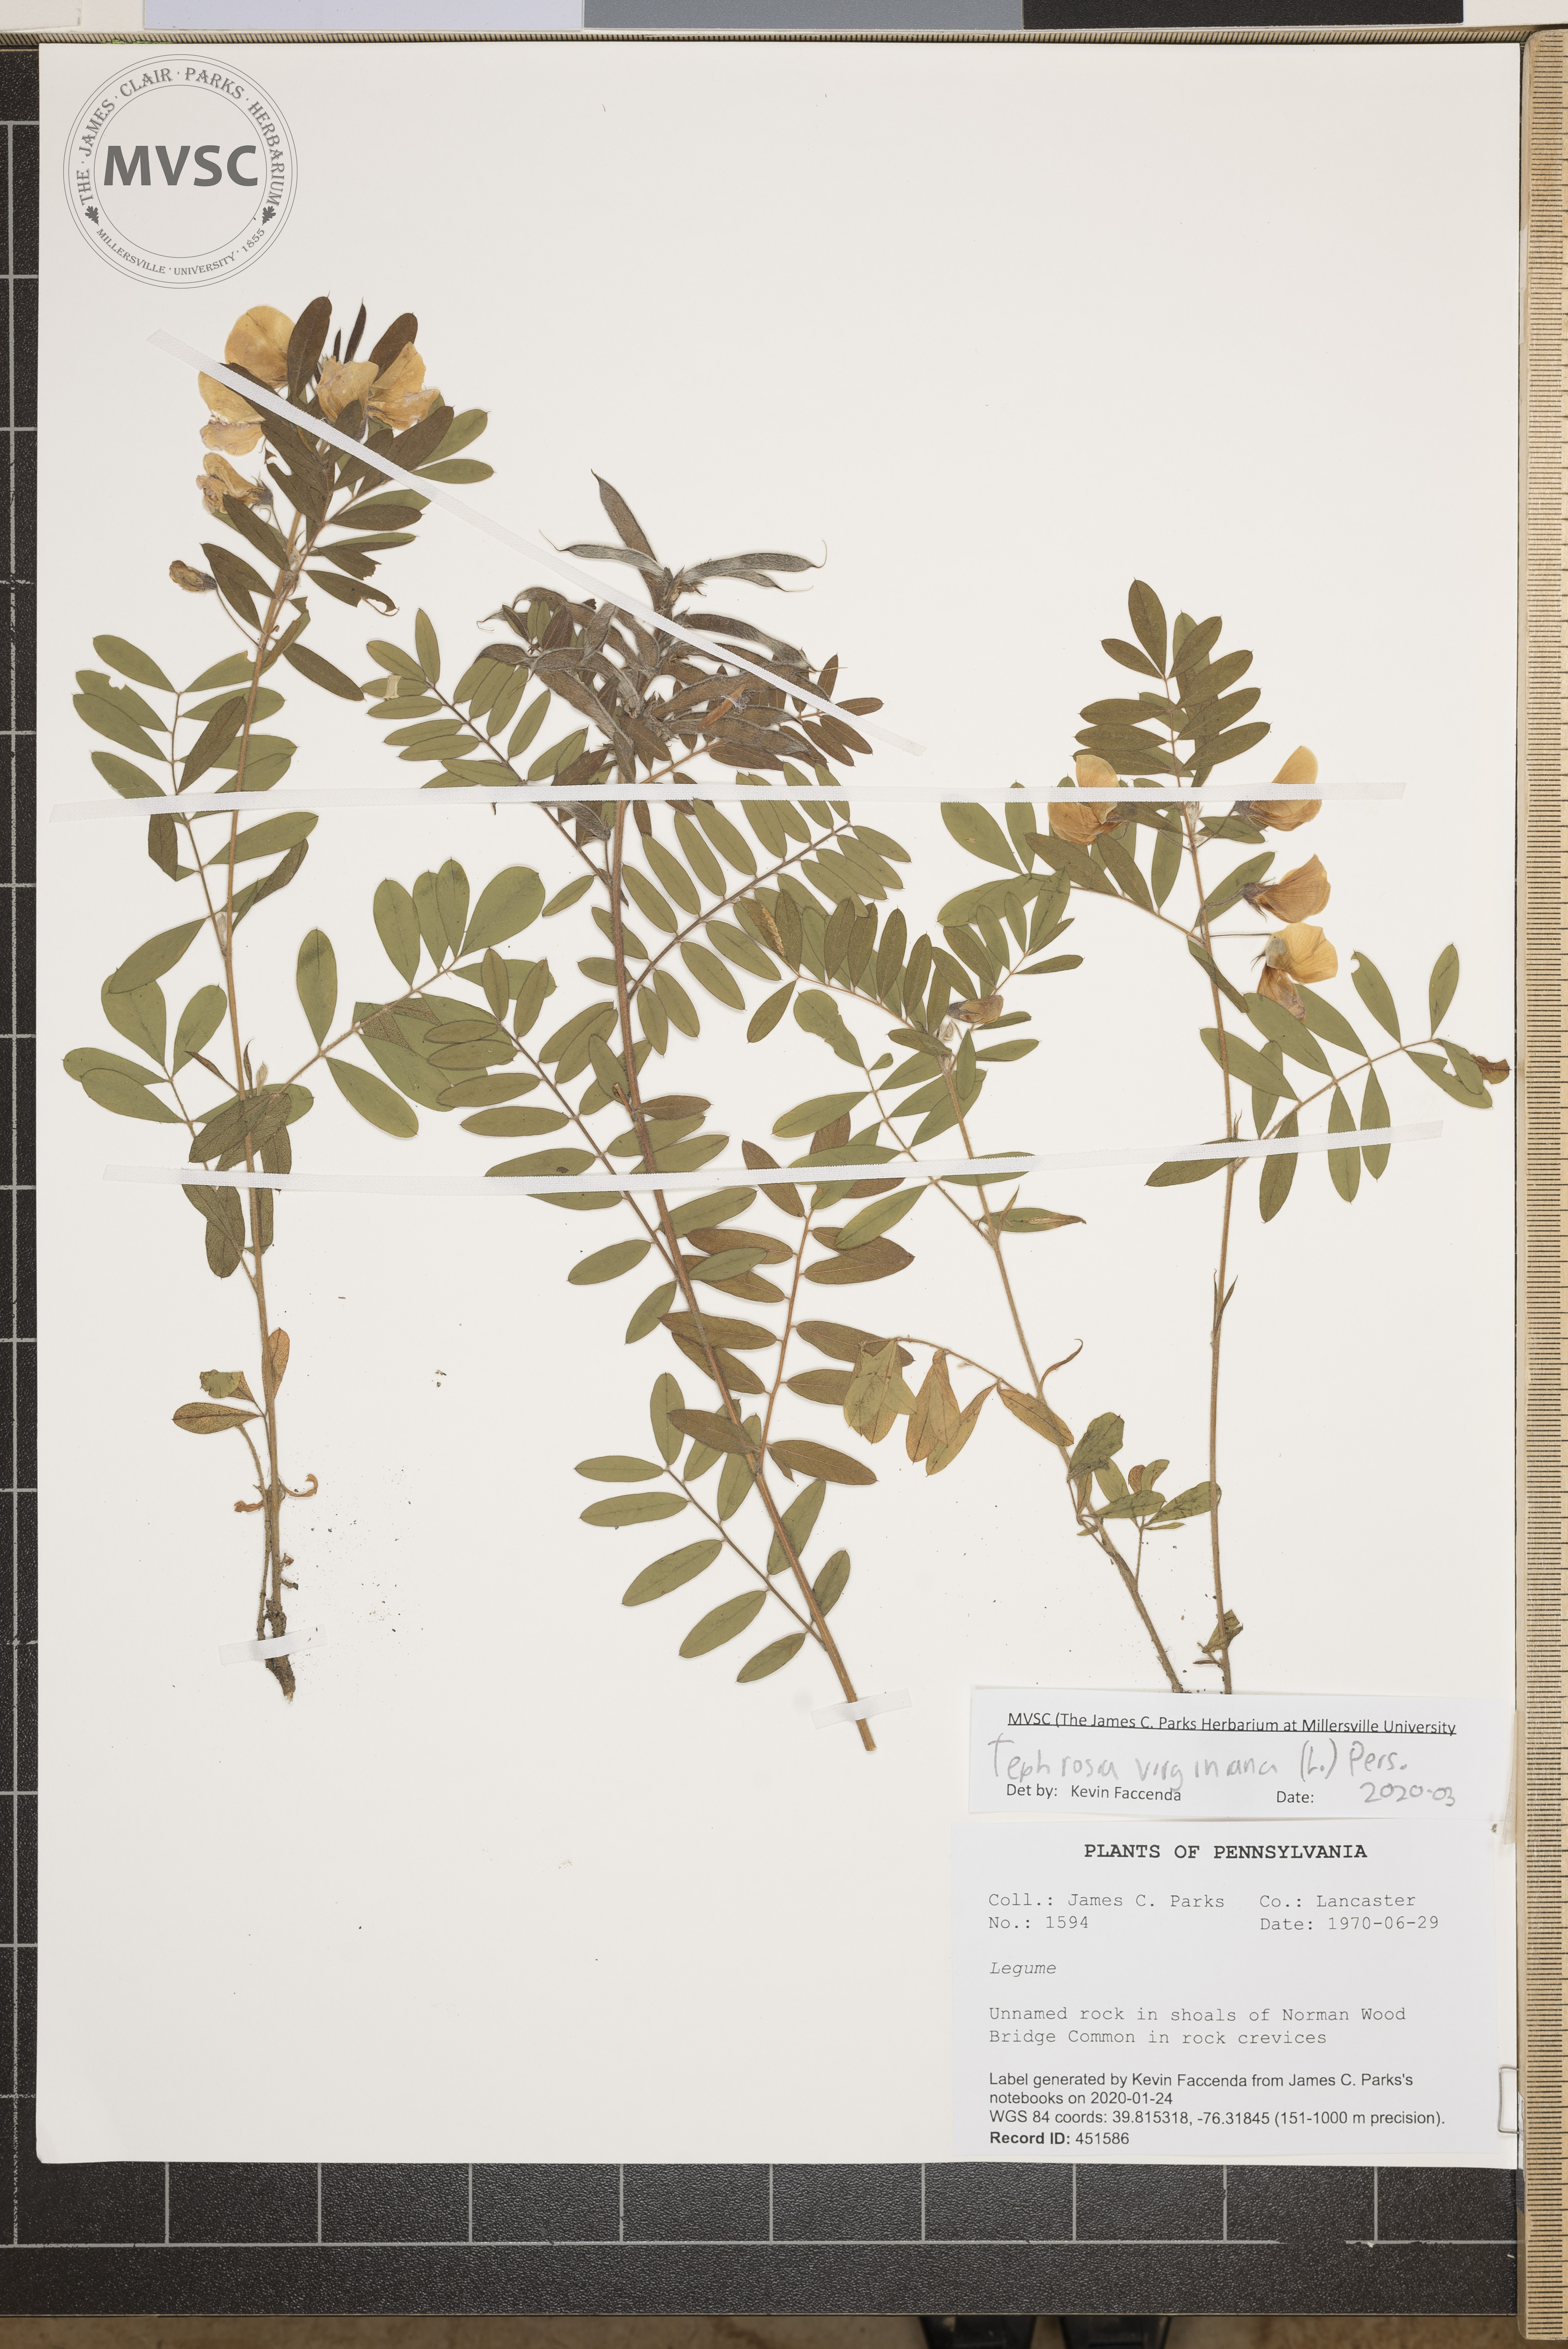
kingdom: Plantae
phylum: Tracheophyta
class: Magnoliopsida
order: Fabales
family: Fabaceae
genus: Tephrosia
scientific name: Tephrosia virginiana
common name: Rabbit-pea
